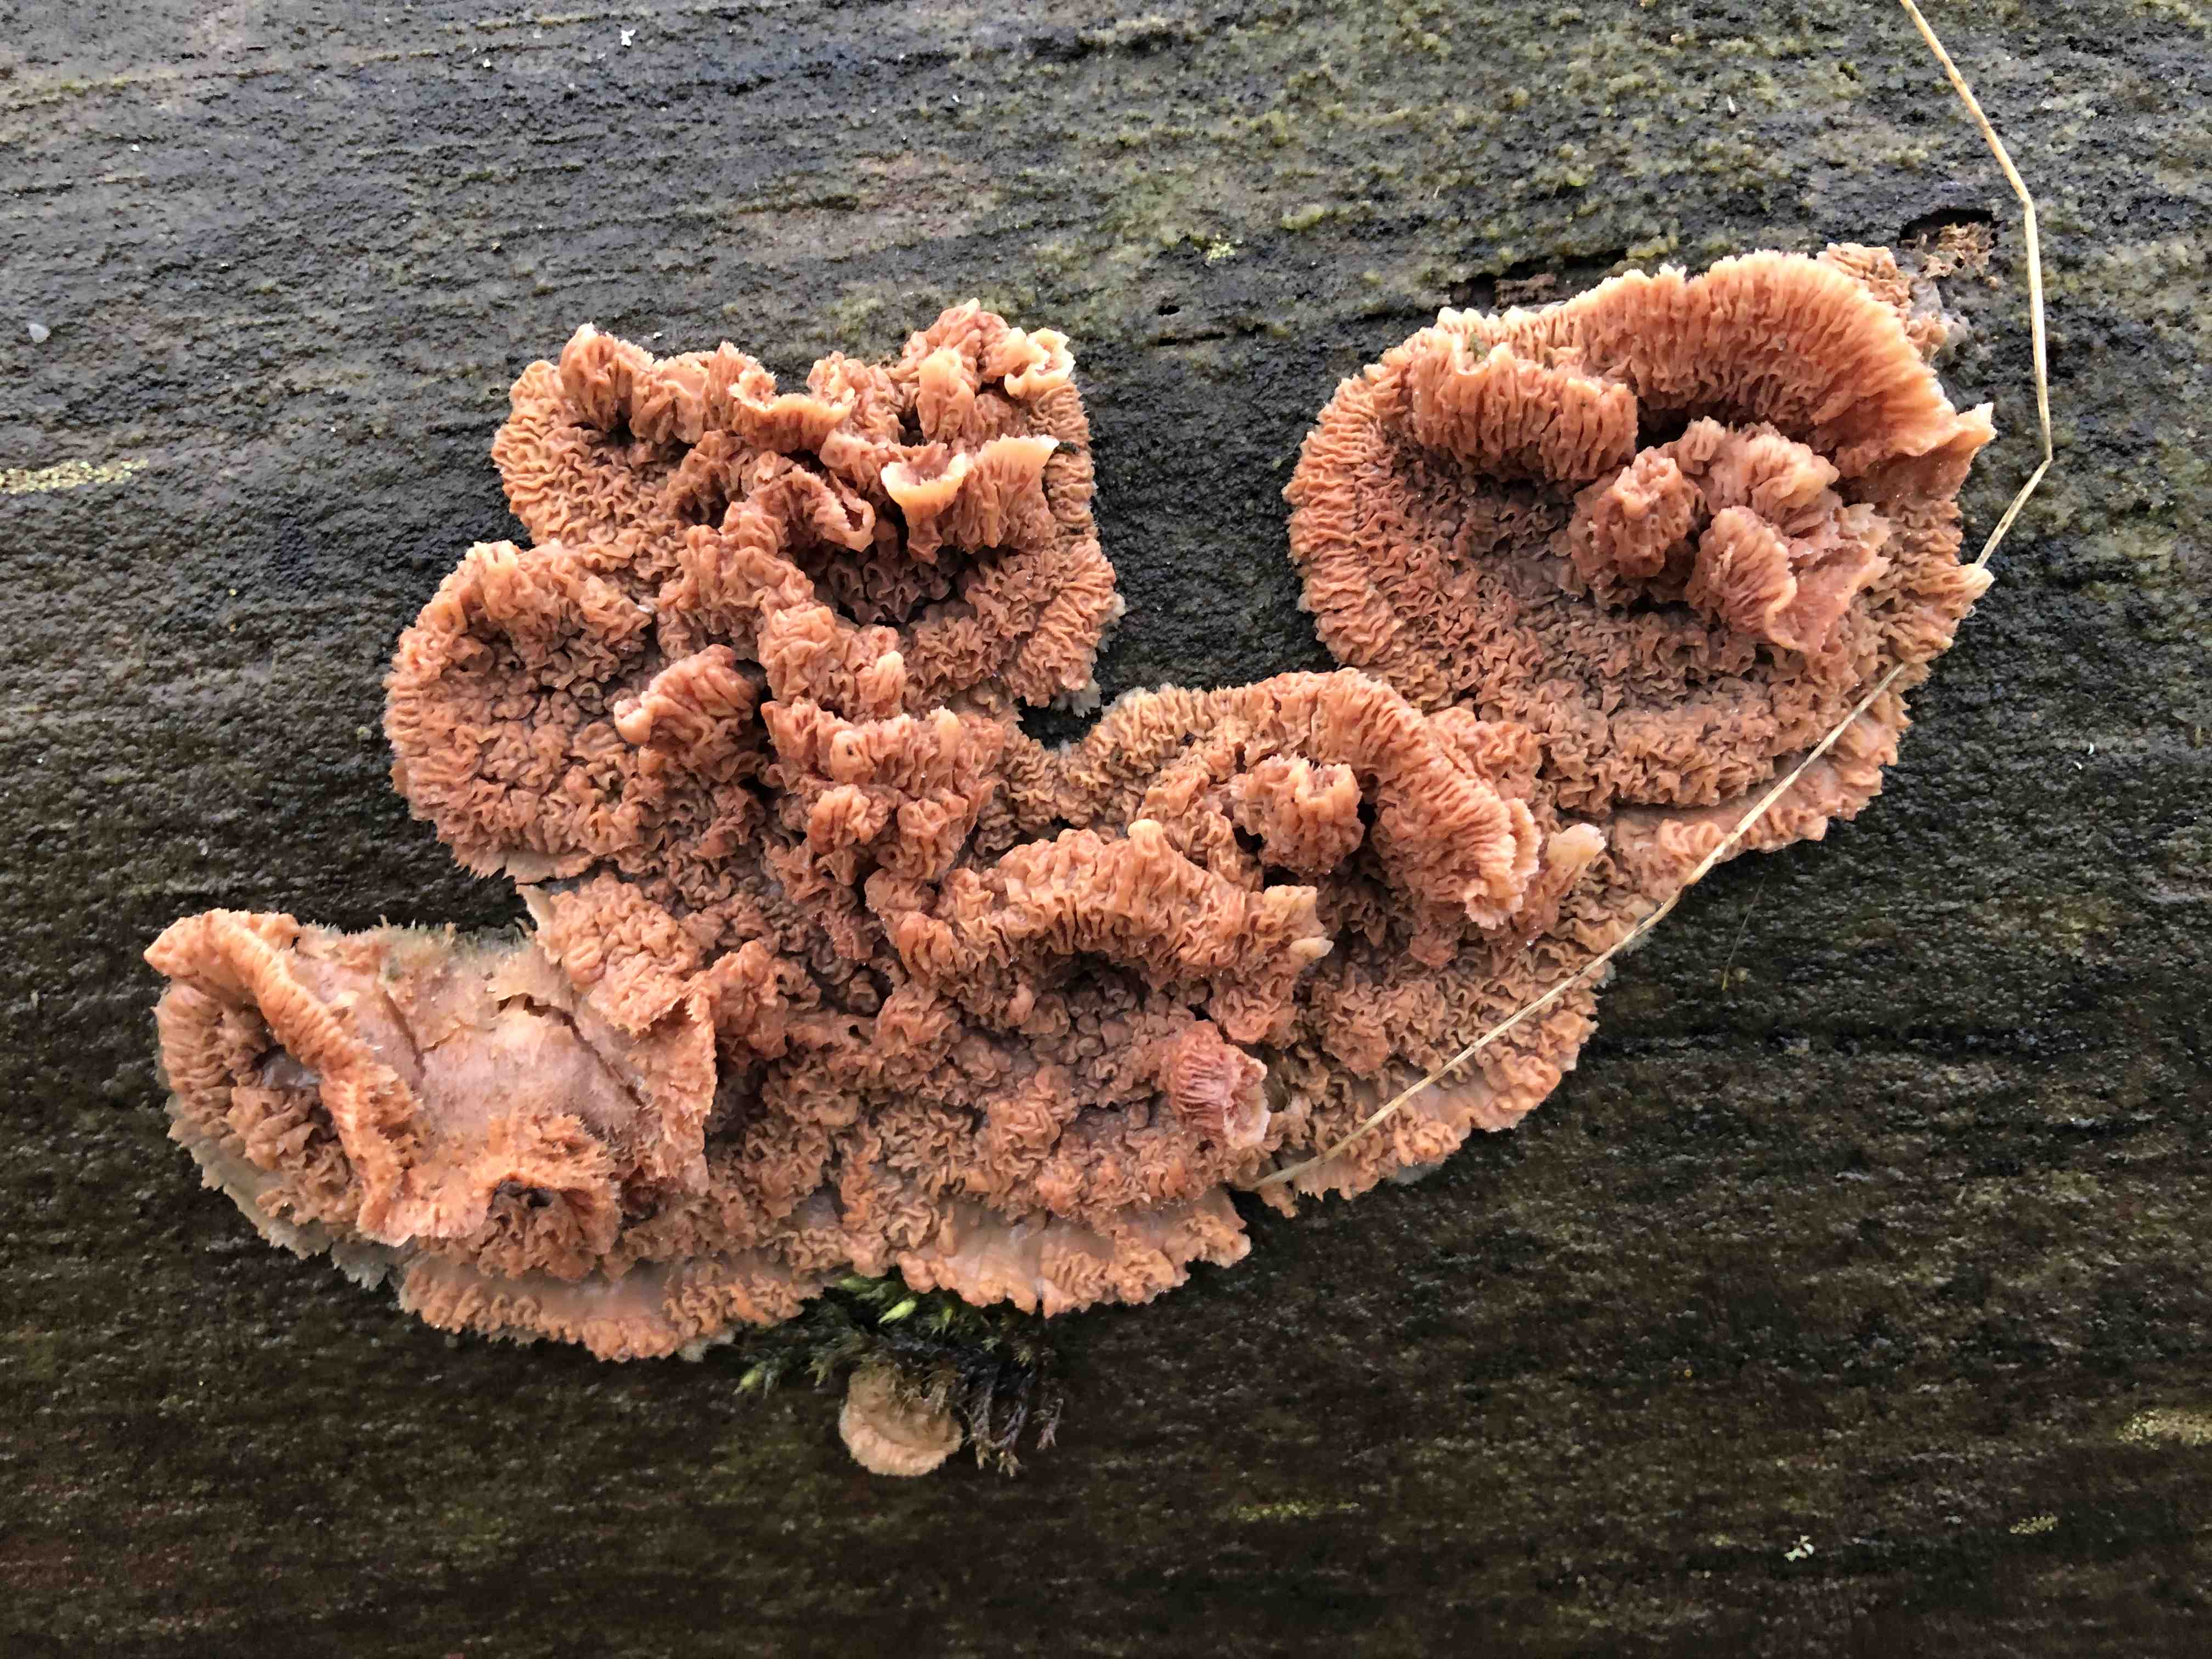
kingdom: Fungi
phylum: Basidiomycota
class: Agaricomycetes
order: Polyporales
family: Meruliaceae
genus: Phlebia
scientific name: Phlebia radiata
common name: stråle-åresvamp
